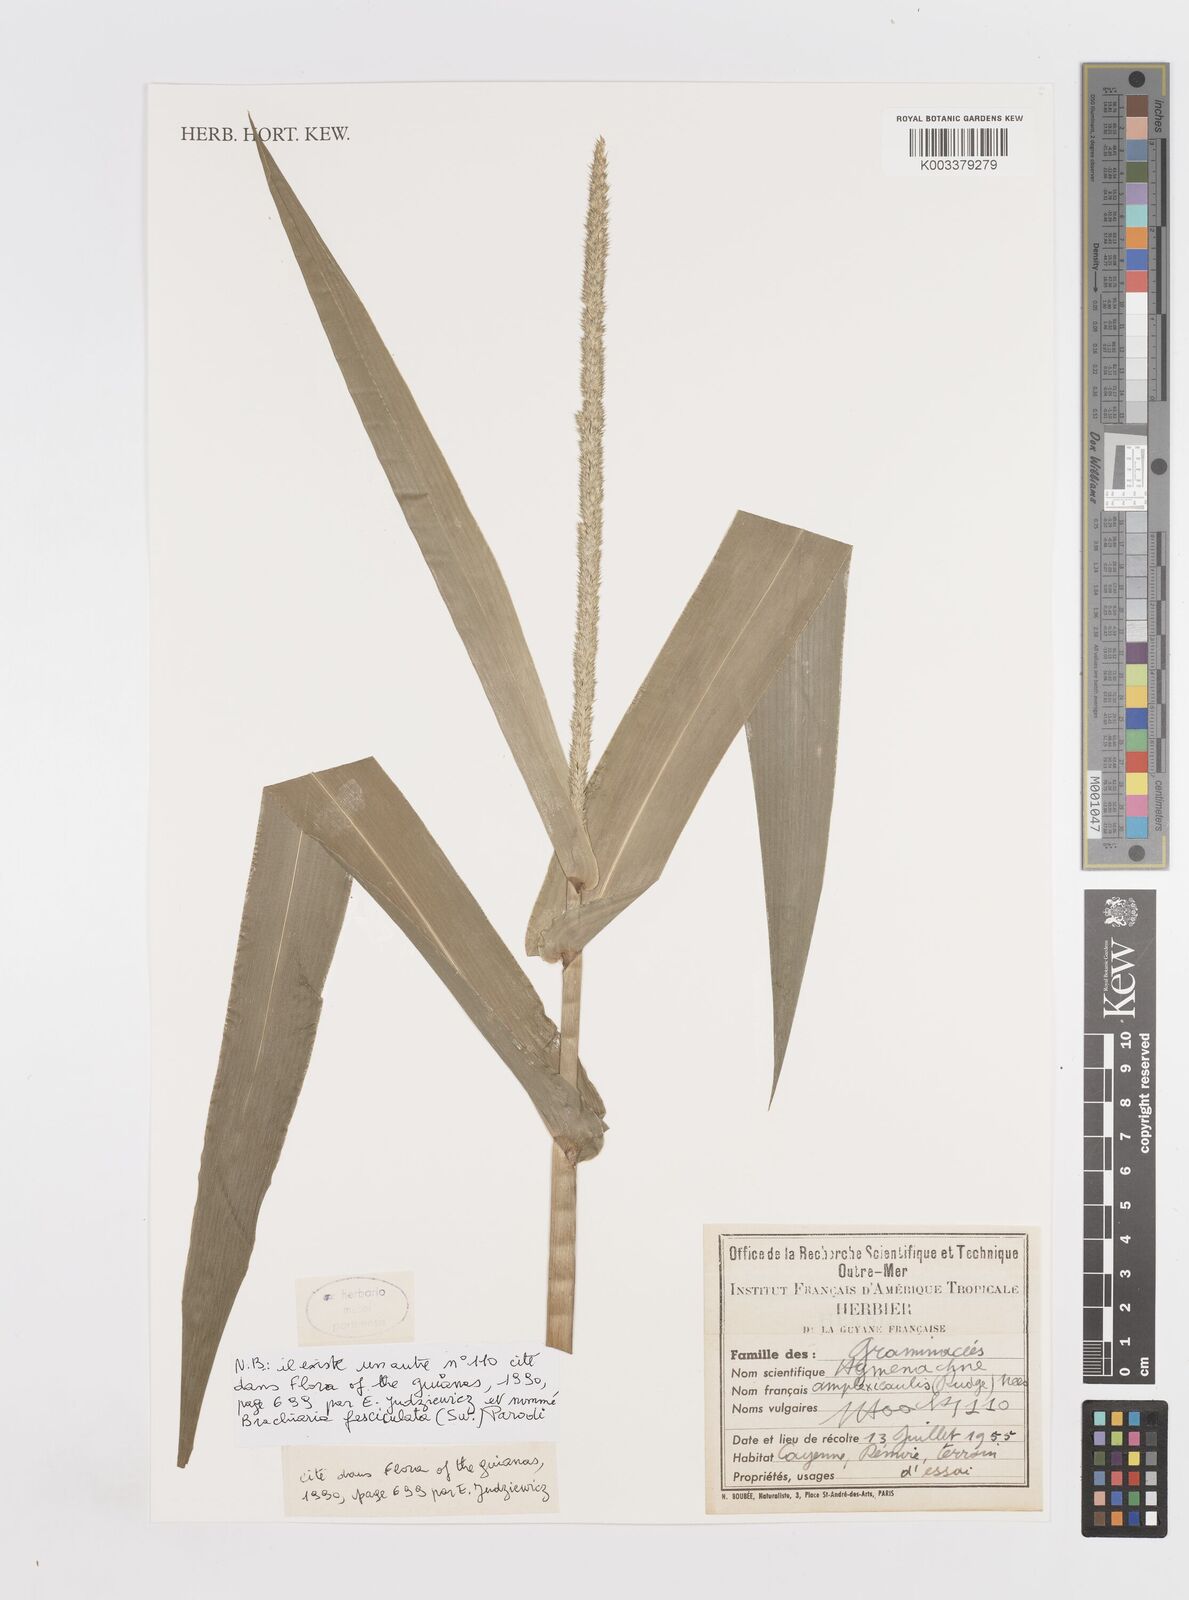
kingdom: Plantae
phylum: Tracheophyta
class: Liliopsida
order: Poales
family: Poaceae
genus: Hymenachne
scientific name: Hymenachne amplexicaulis
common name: Olive hymenachne
